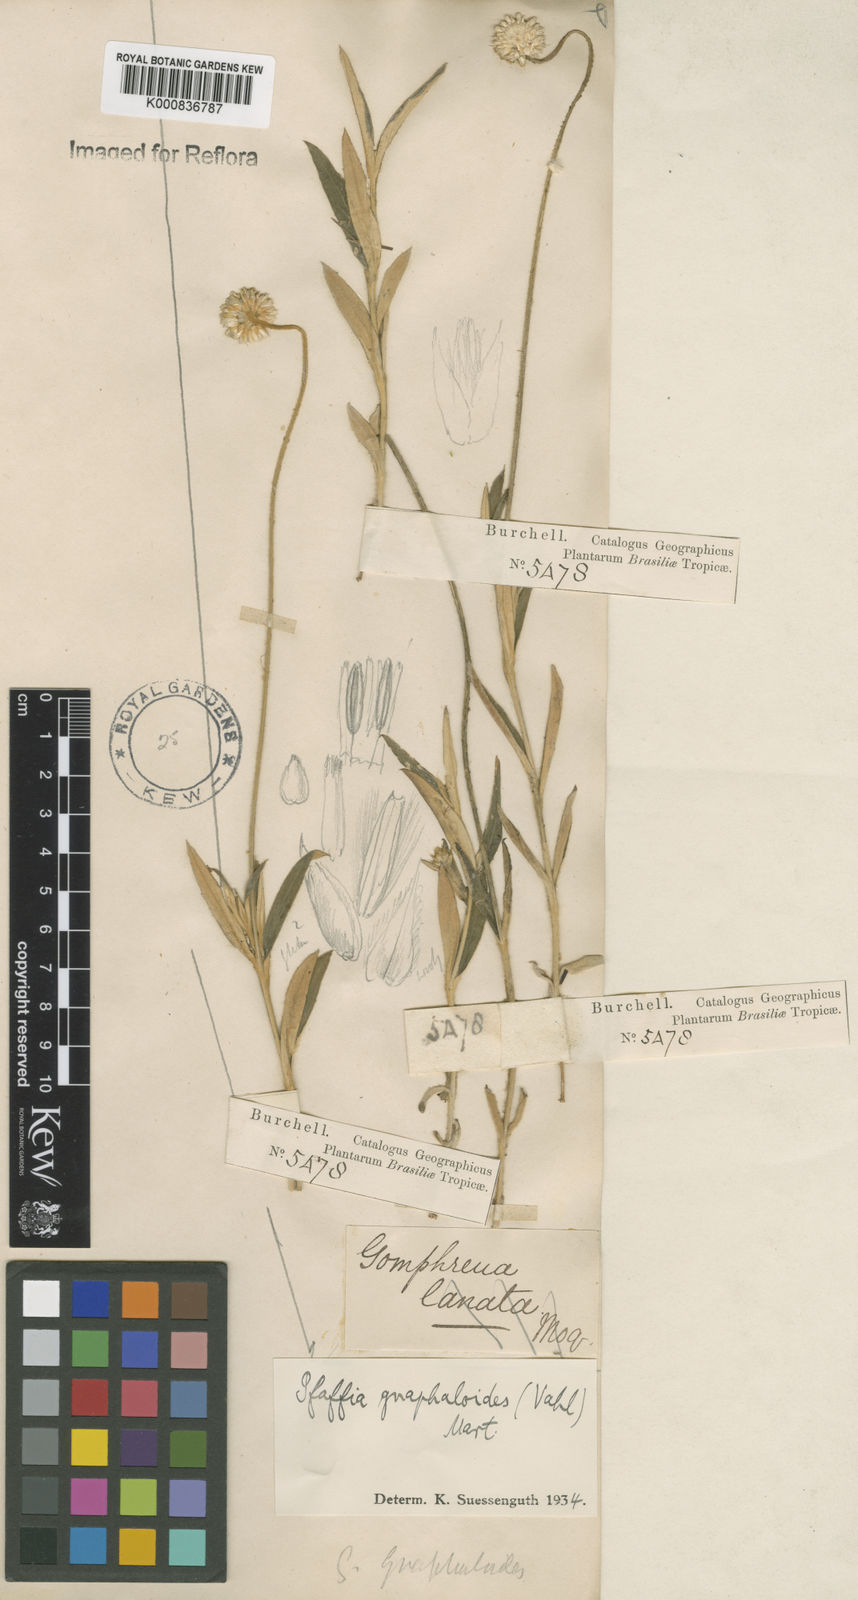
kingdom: Plantae
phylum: Tracheophyta
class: Magnoliopsida
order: Caryophyllales
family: Amaranthaceae
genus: Pfaffia
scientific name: Pfaffia
